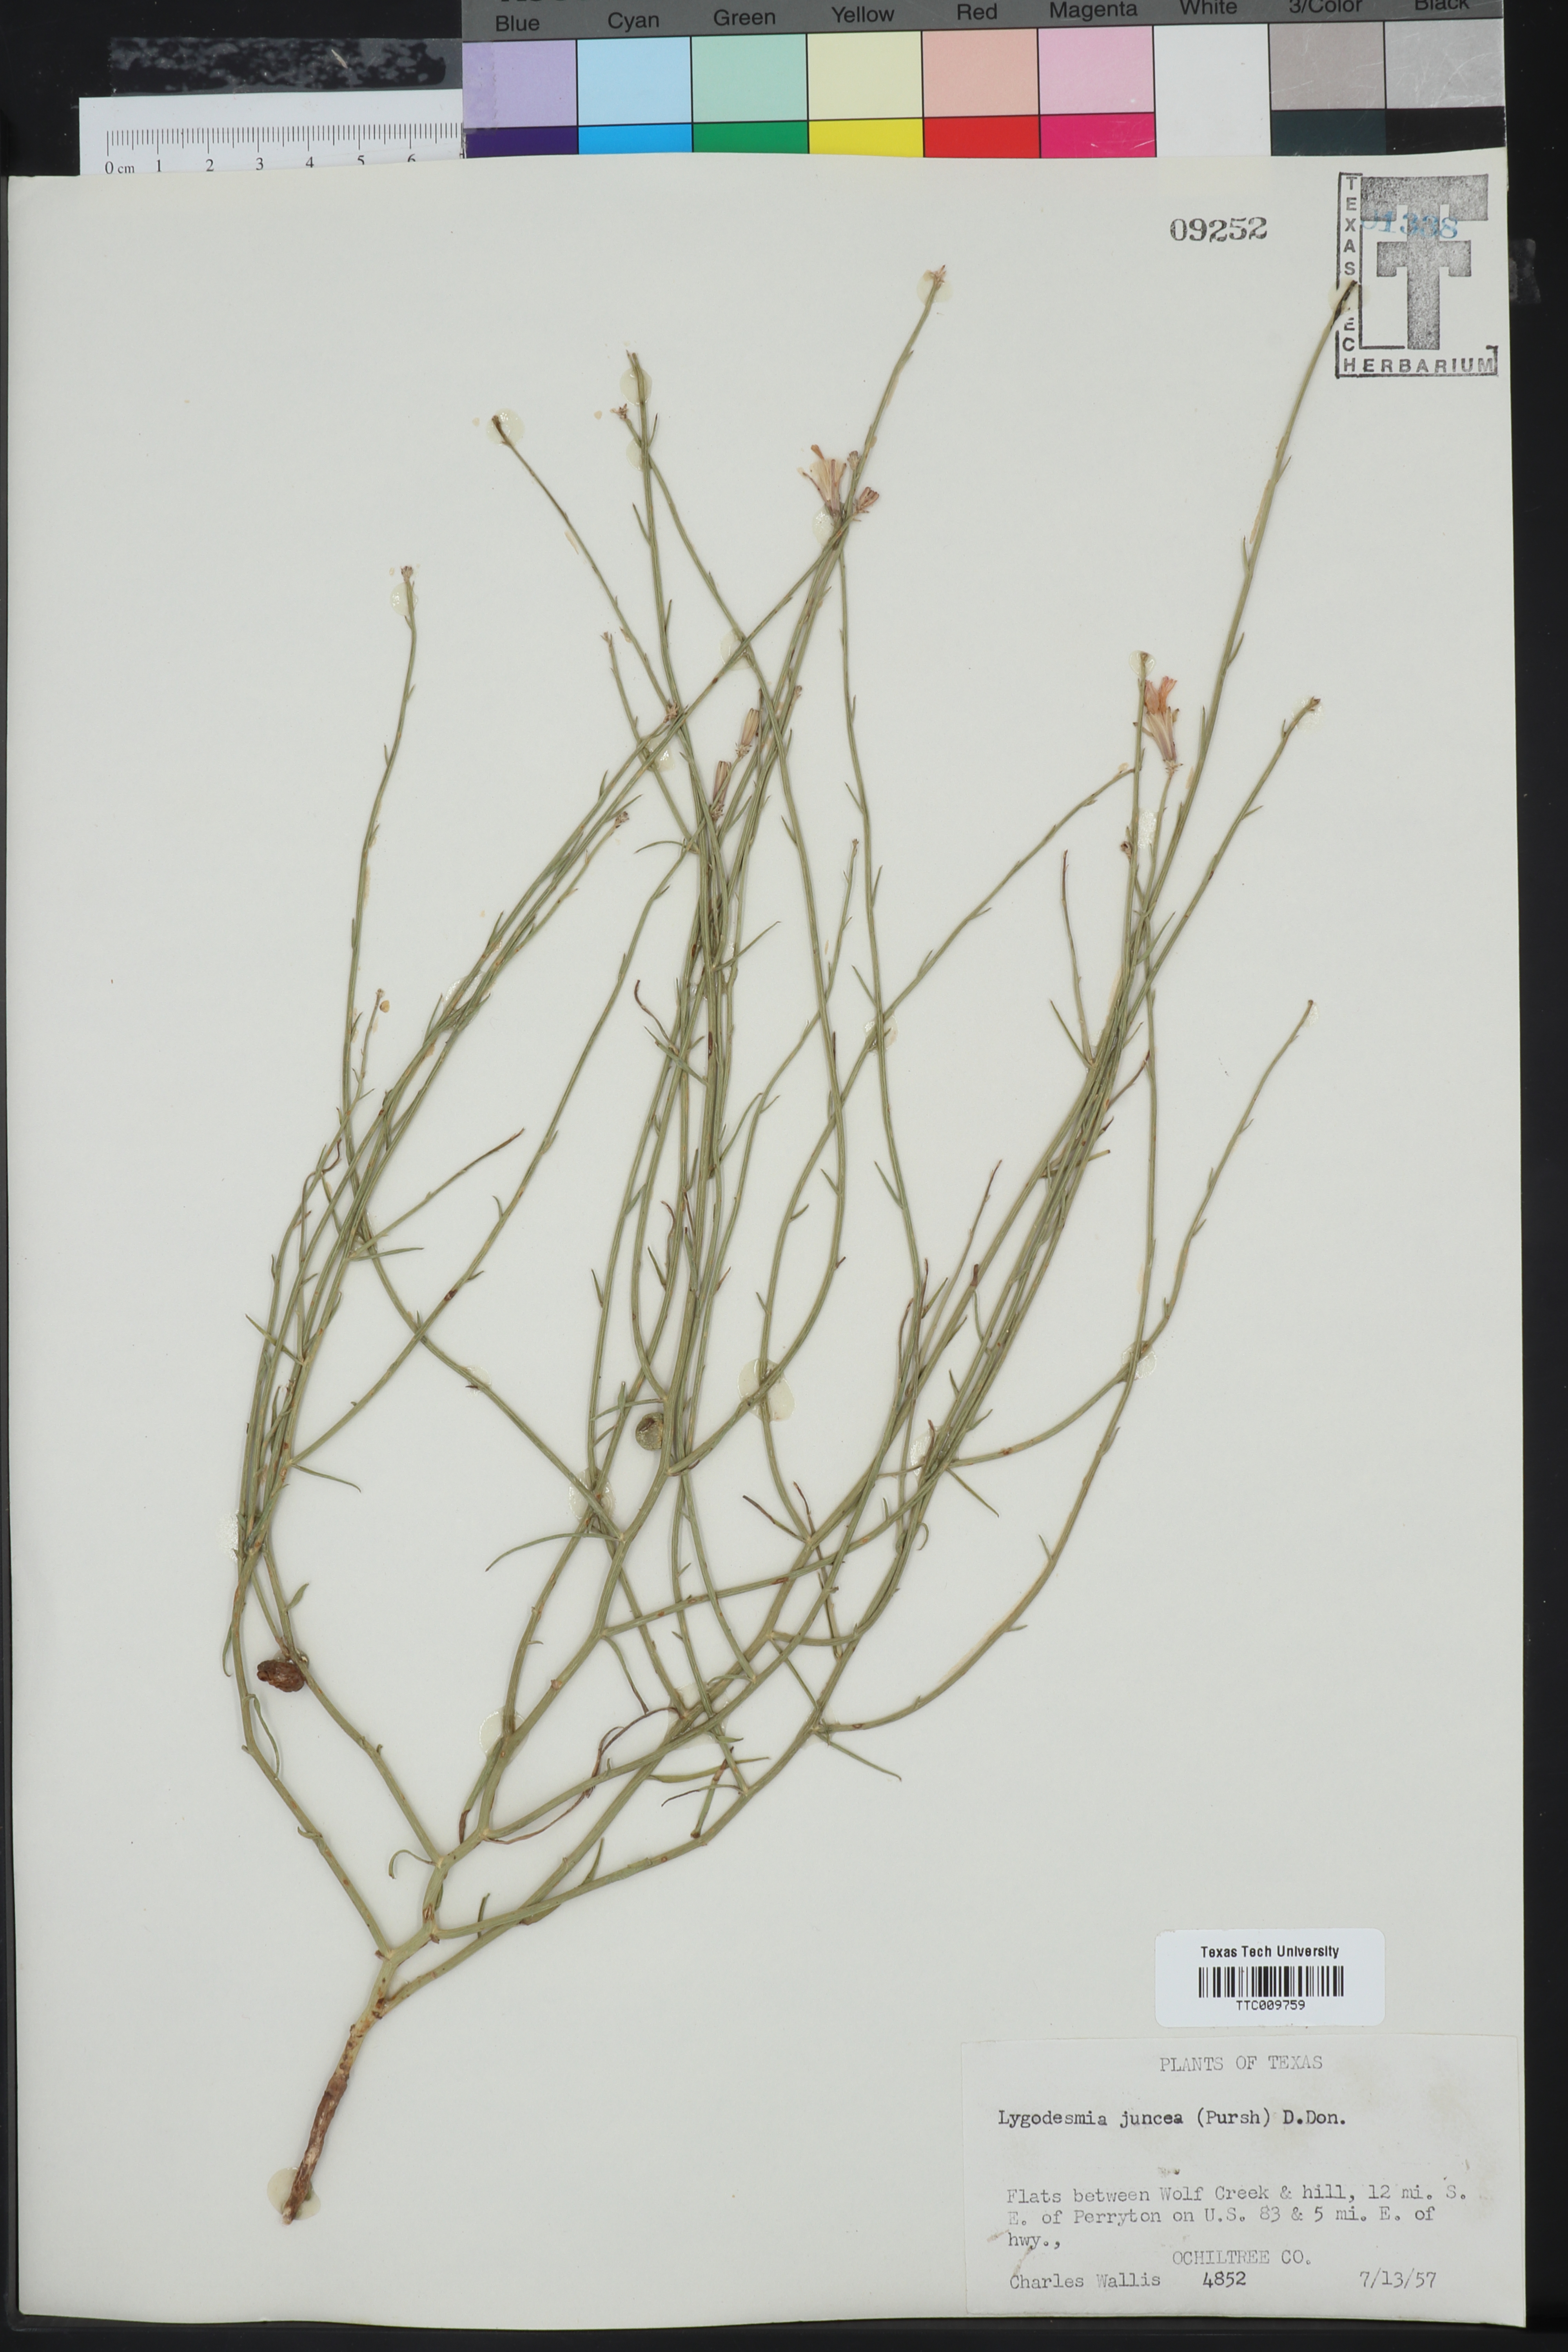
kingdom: Plantae
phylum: Tracheophyta
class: Magnoliopsida
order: Asterales
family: Asteraceae
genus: Lygodesmia
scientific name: Lygodesmia juncea
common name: Common skeletonweed
